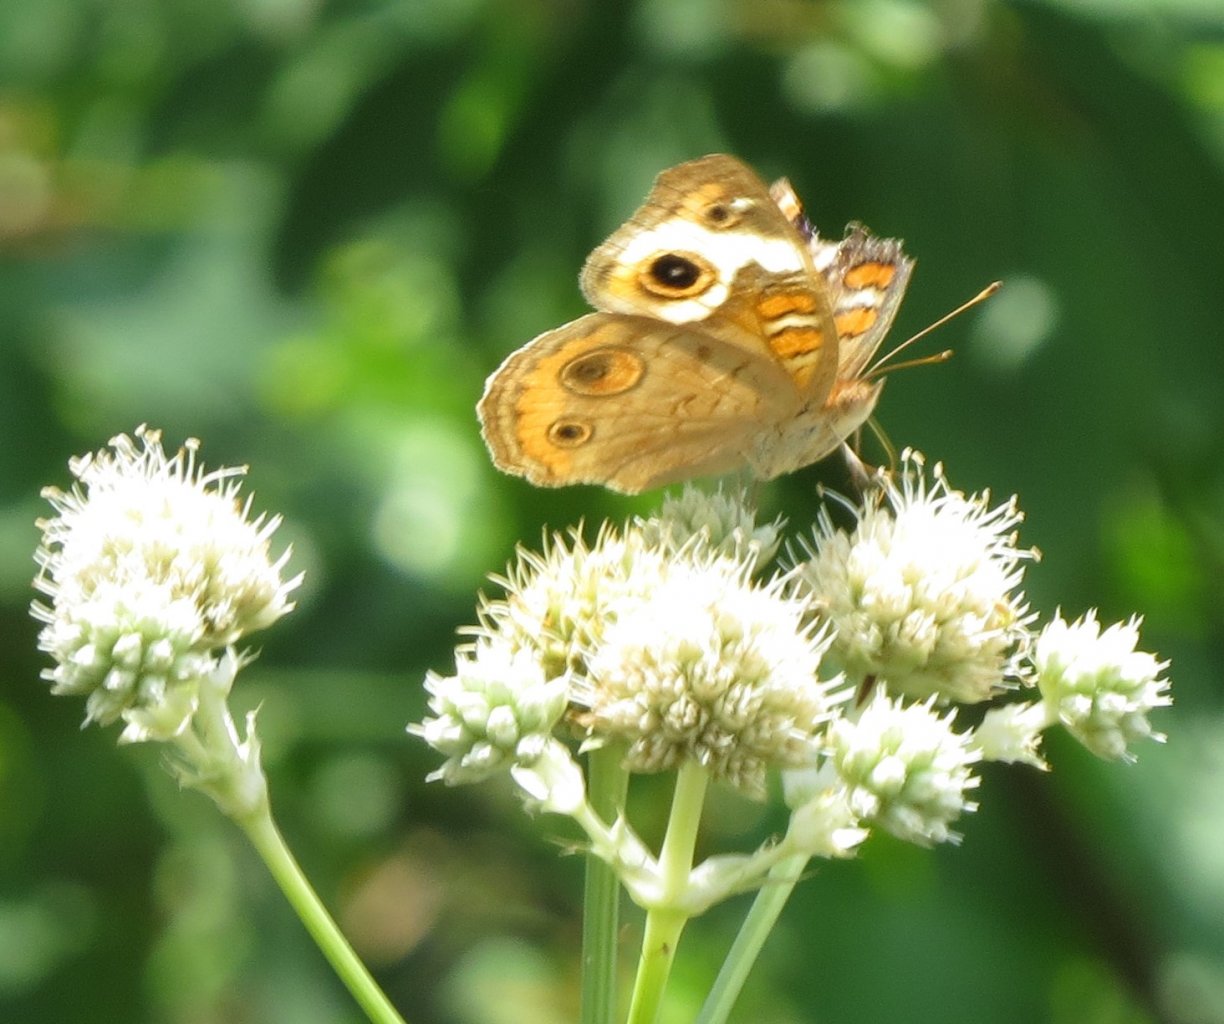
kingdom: Animalia
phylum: Arthropoda
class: Insecta
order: Lepidoptera
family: Nymphalidae
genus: Junonia
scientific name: Junonia coenia
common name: Common Buckeye
